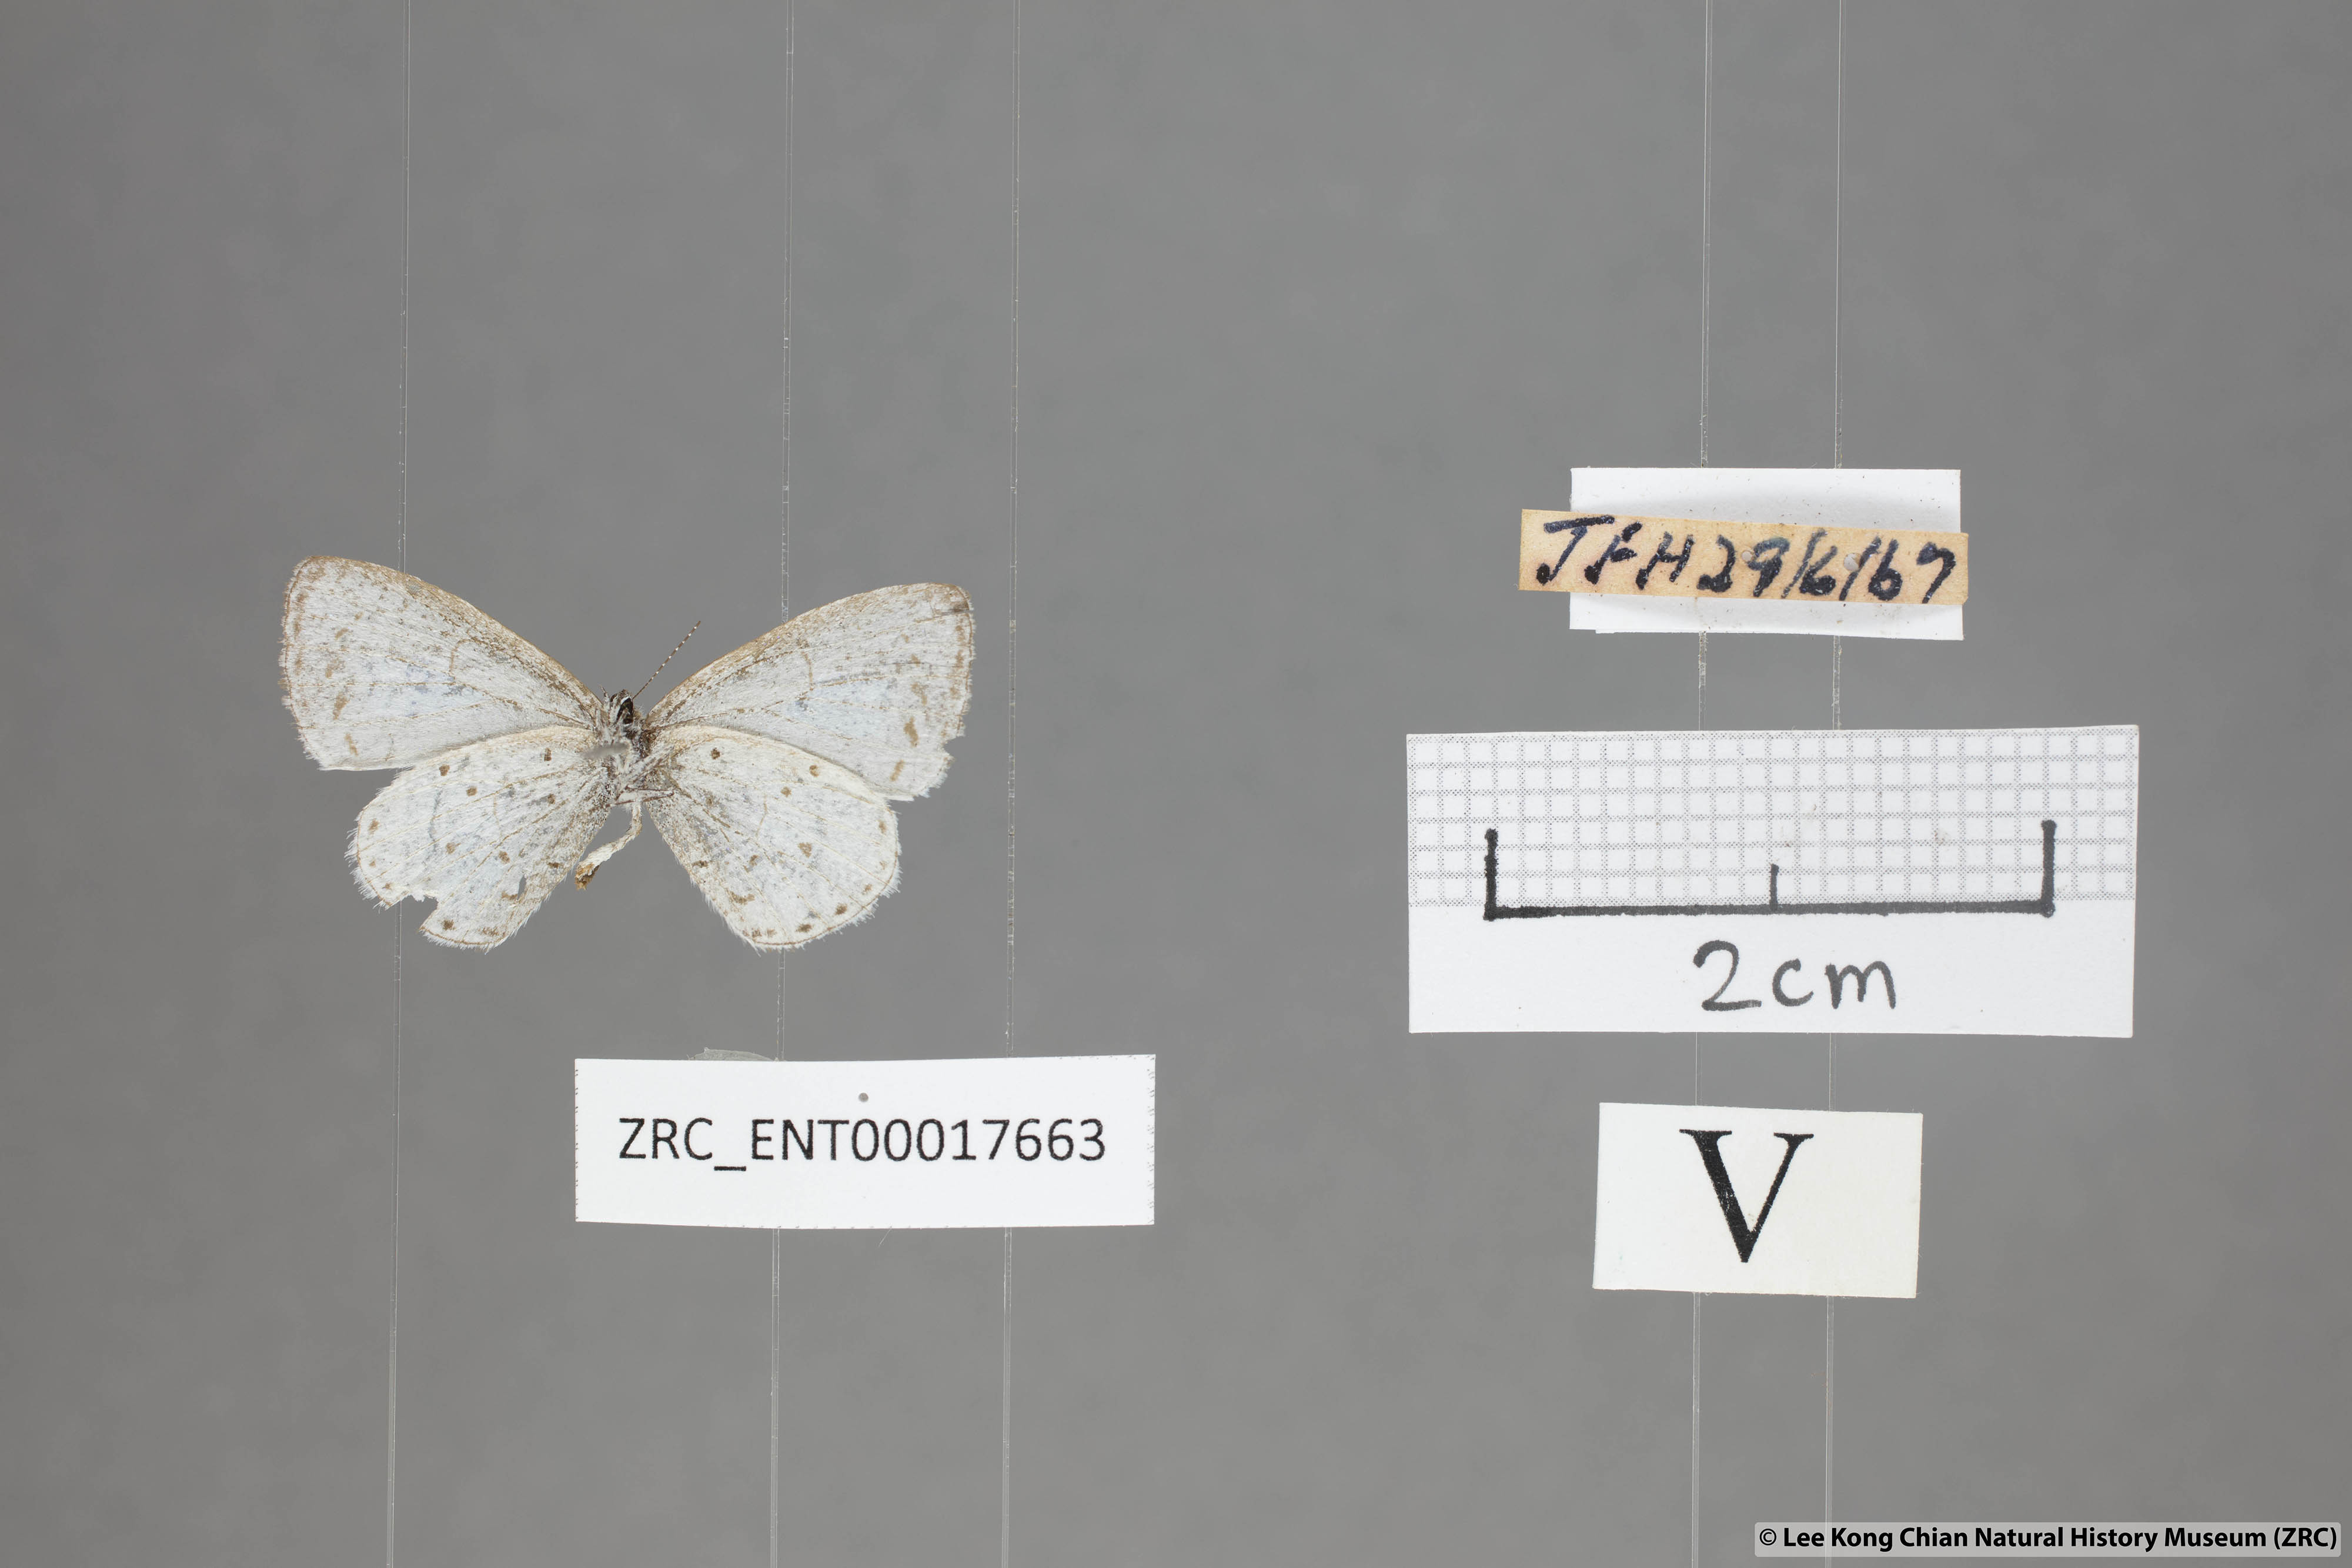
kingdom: Animalia
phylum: Arthropoda
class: Insecta
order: Lepidoptera
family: Lycaenidae
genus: Udara
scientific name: Udara albocaerulea
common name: Albocerulean
